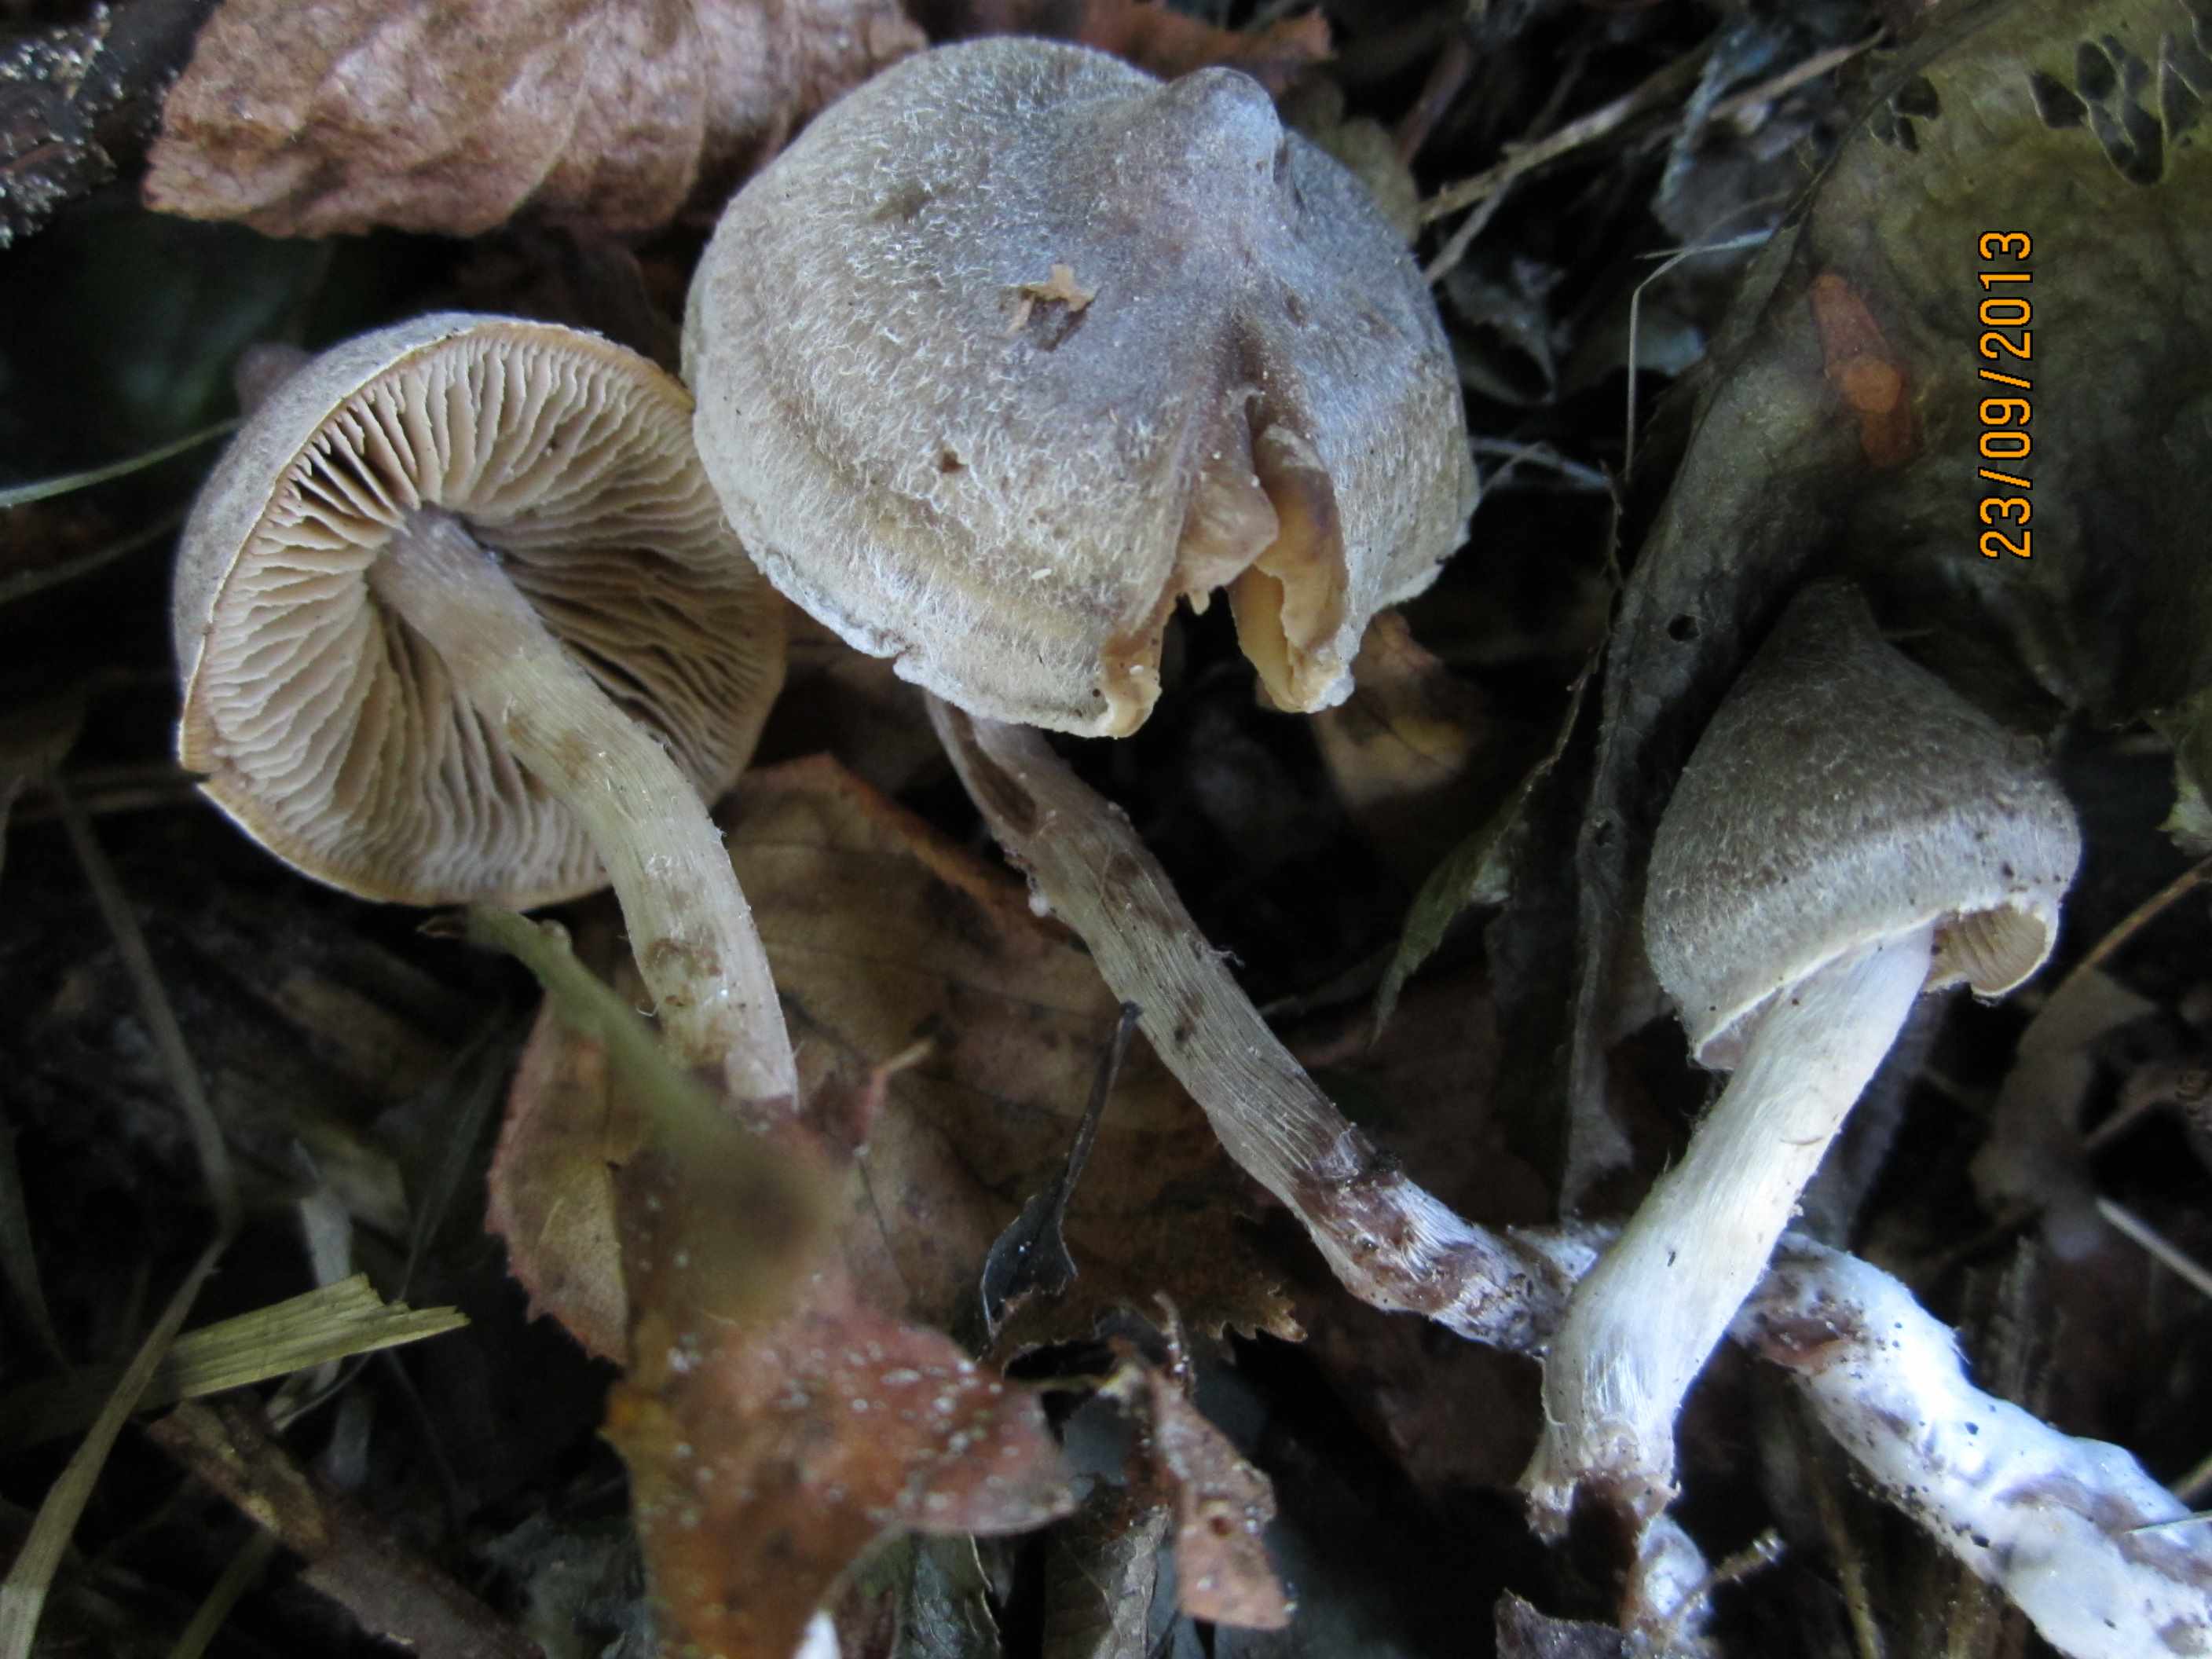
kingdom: Fungi
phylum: Basidiomycota
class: Agaricomycetes
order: Agaricales
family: Cortinariaceae
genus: Cortinarius
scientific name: Cortinarius hemitrichus
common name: hvidfnugget slørhat
